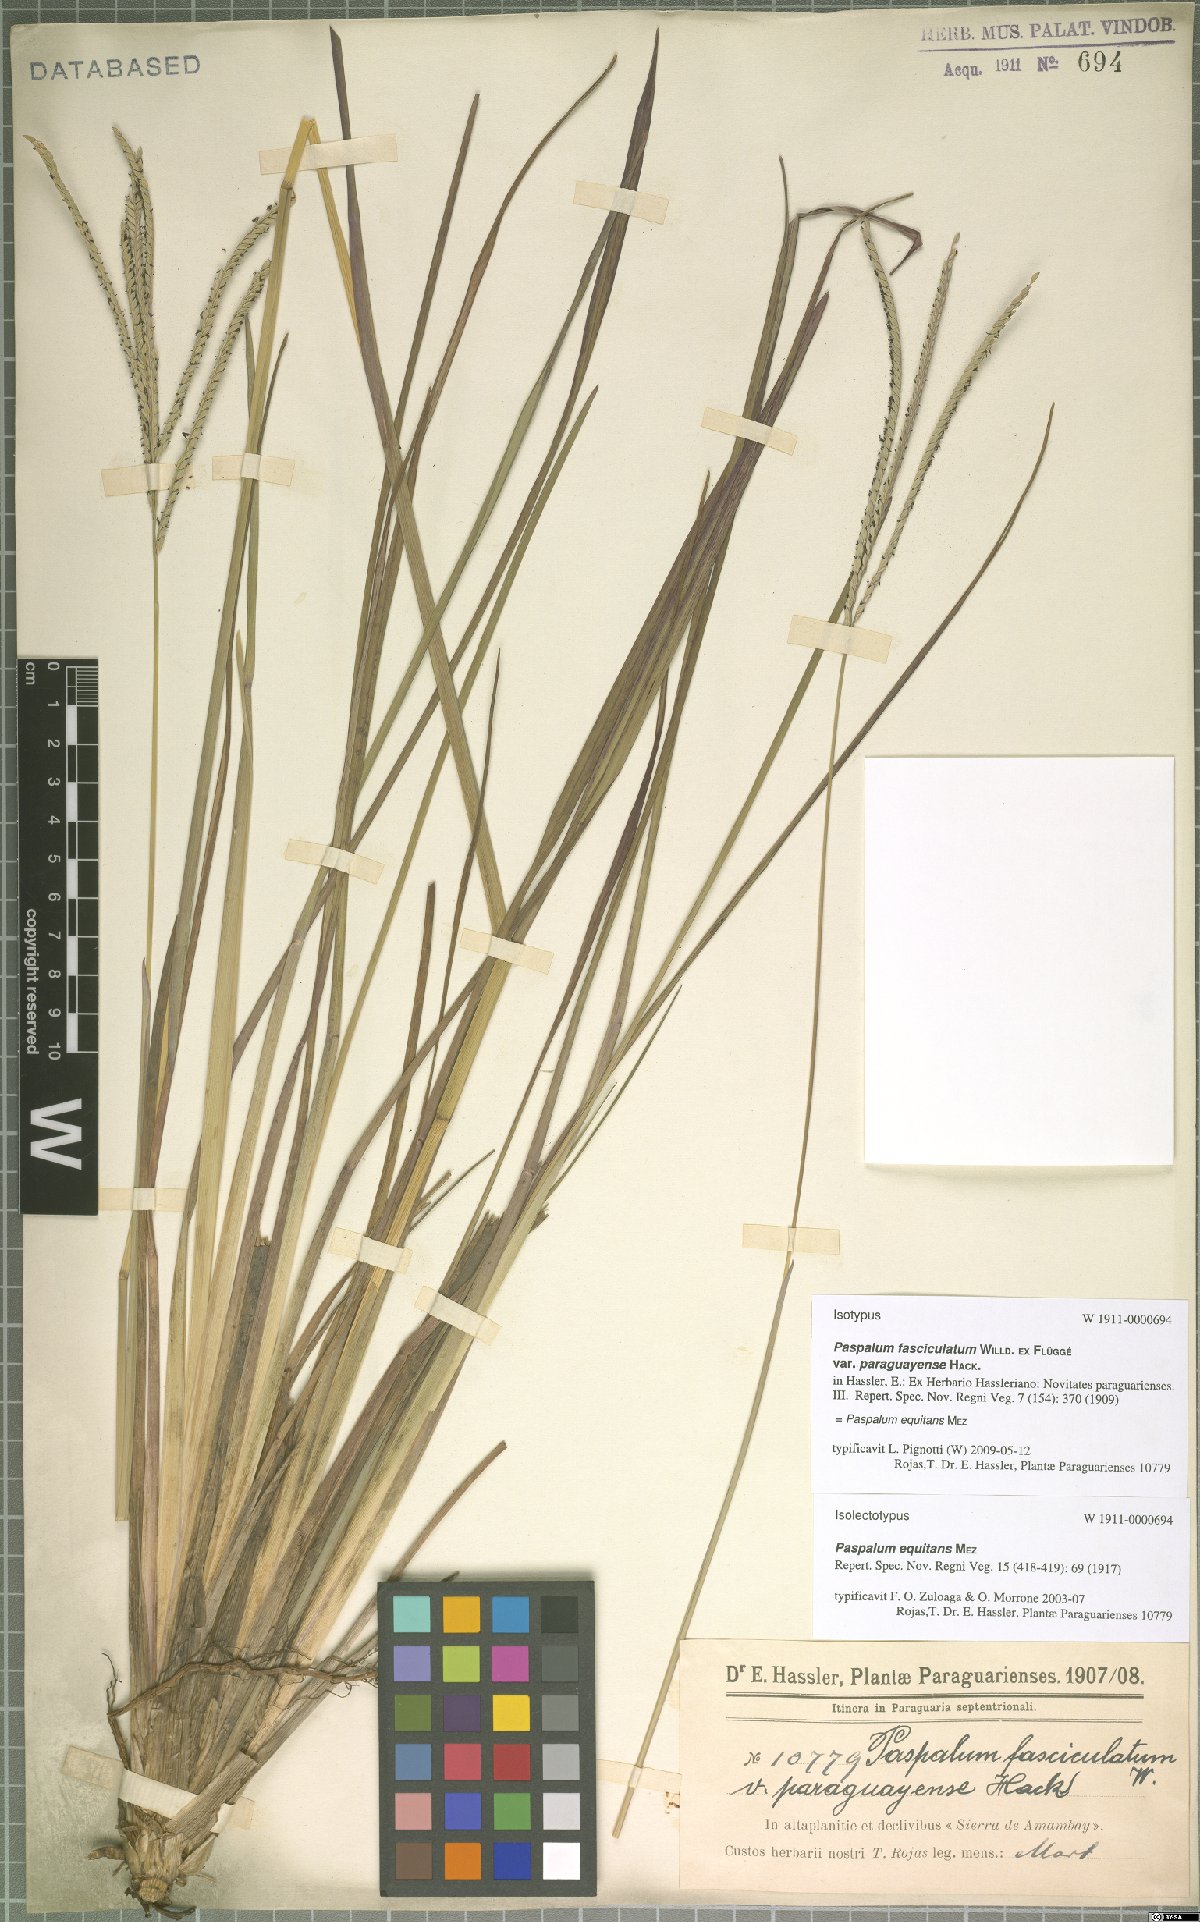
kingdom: Plantae
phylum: Tracheophyta
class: Liliopsida
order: Poales
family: Poaceae
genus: Paspalum
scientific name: Paspalum equitans
